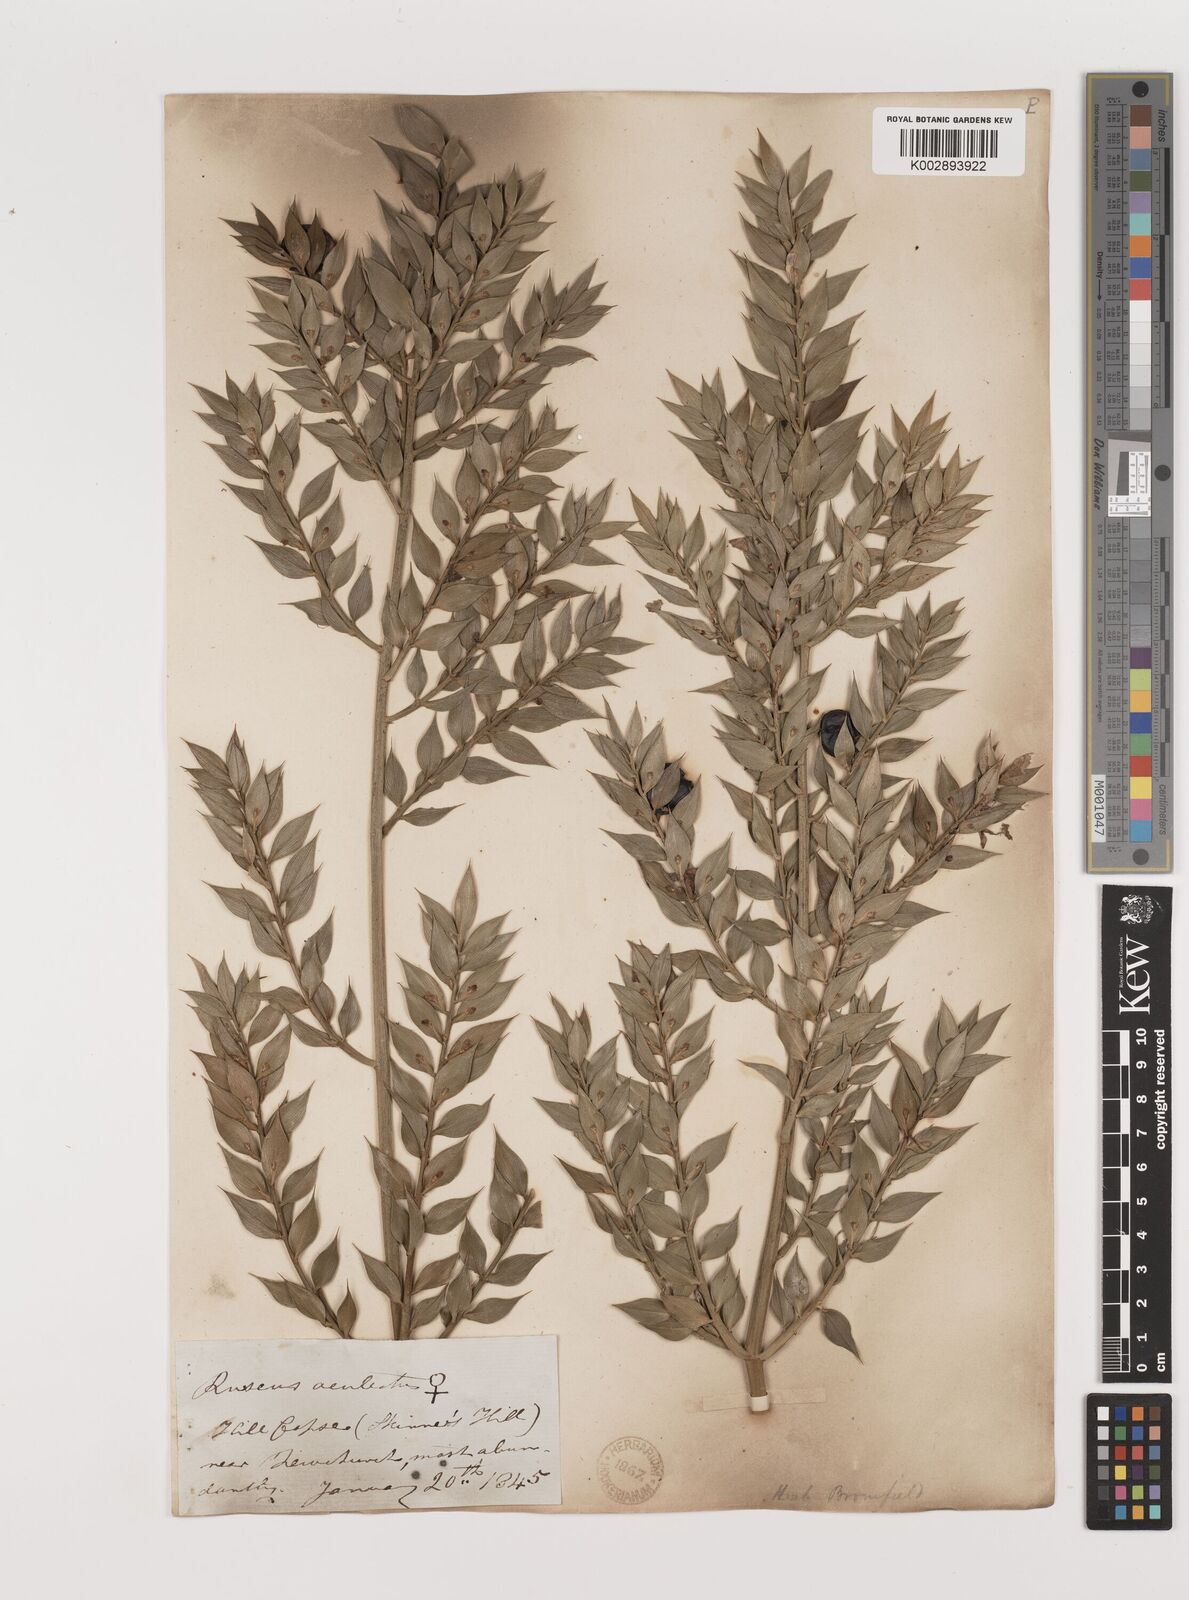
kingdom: Plantae
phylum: Tracheophyta
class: Liliopsida
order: Asparagales
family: Asparagaceae
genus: Ruscus
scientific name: Ruscus aculeatus
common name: Butcher's-broom
